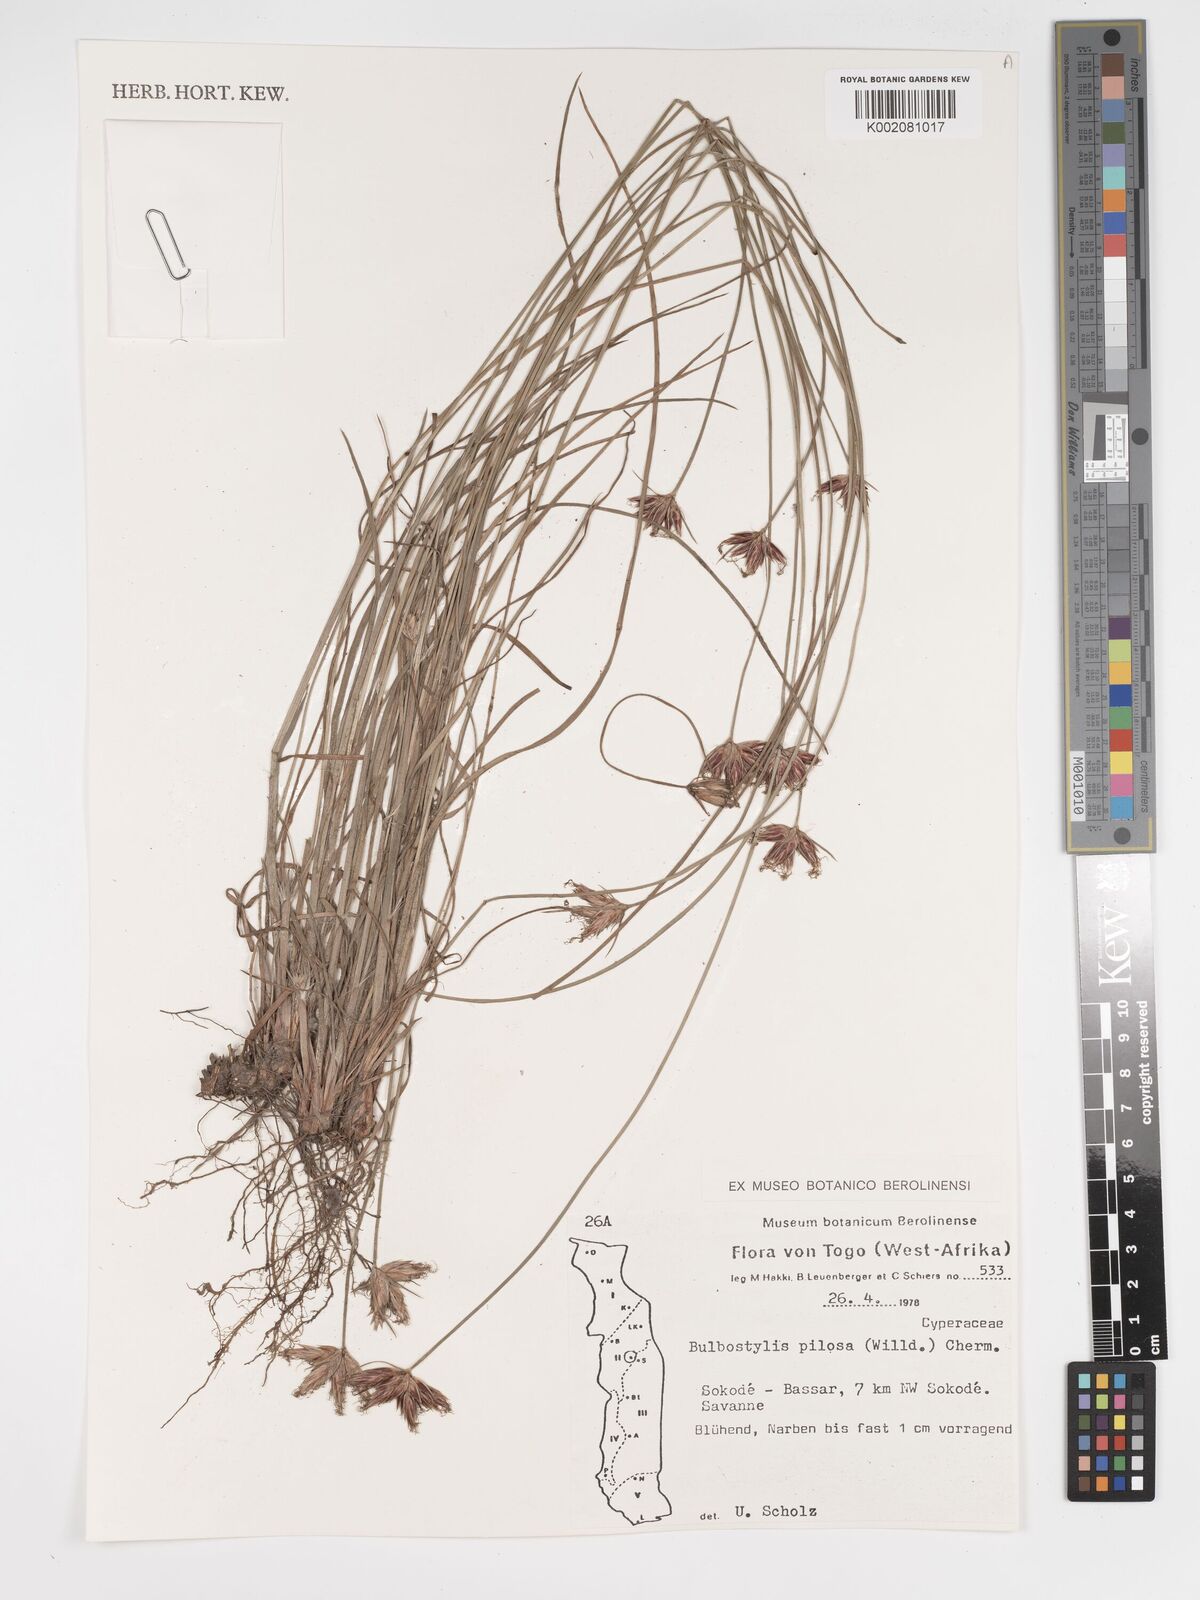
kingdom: Plantae
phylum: Tracheophyta
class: Liliopsida
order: Poales
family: Cyperaceae
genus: Bulbostylis
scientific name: Bulbostylis pilosa
